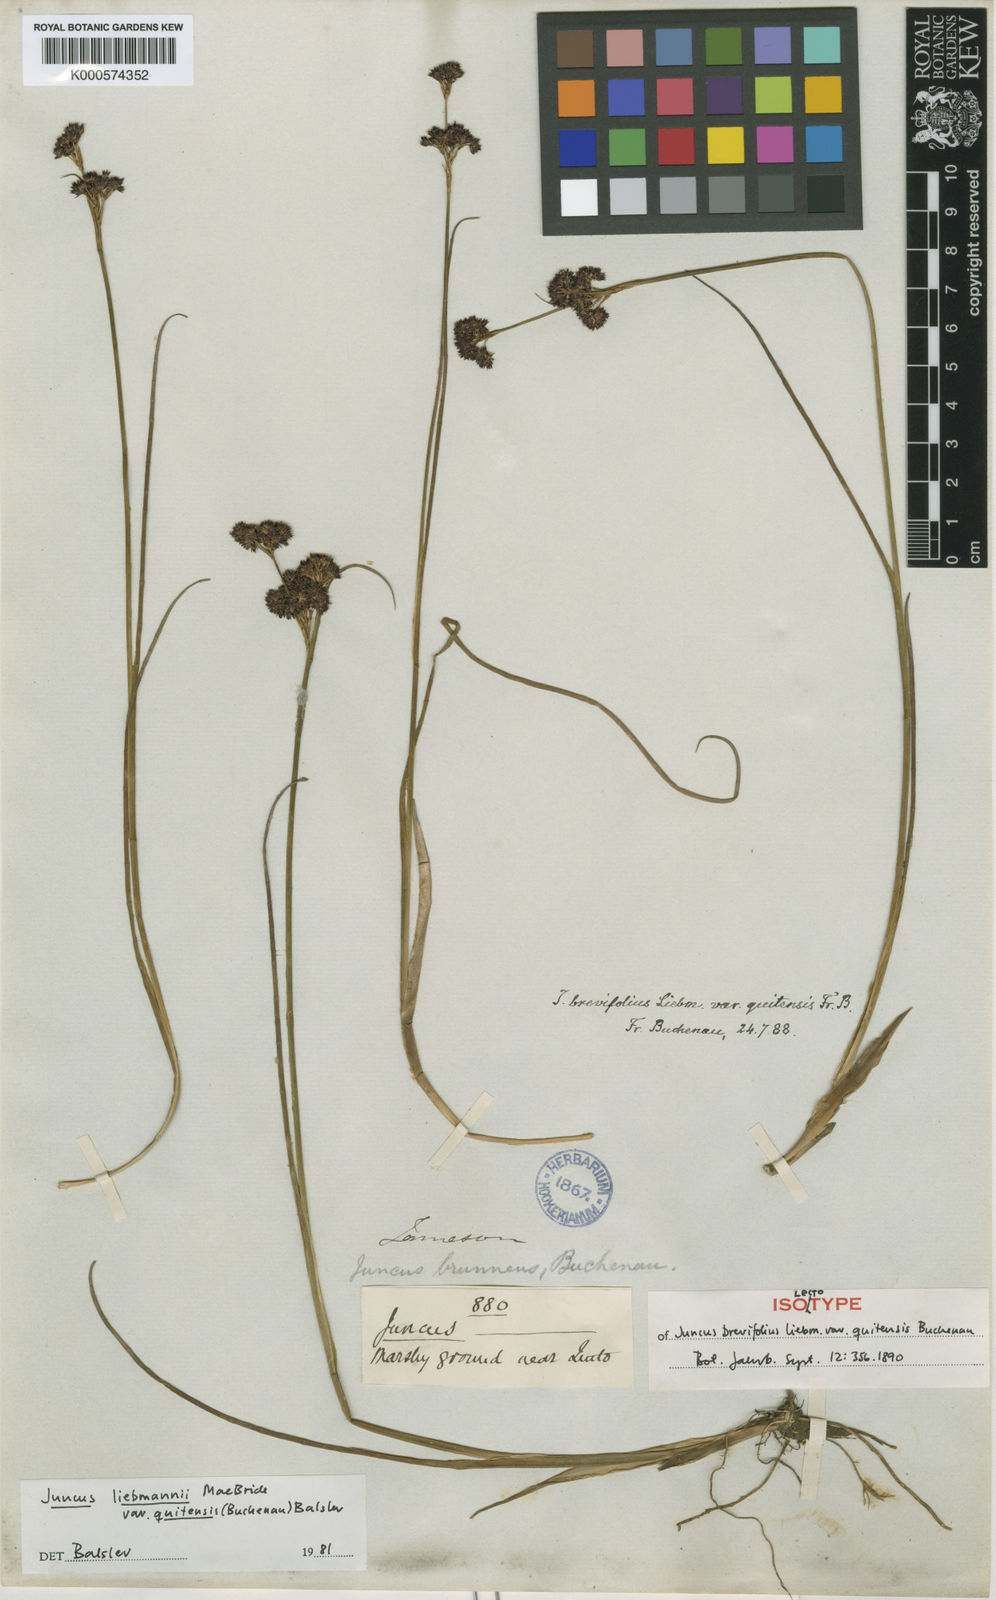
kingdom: Plantae
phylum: Tracheophyta
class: Liliopsida
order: Poales
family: Juncaceae
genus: Juncus
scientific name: Juncus liebmannii
